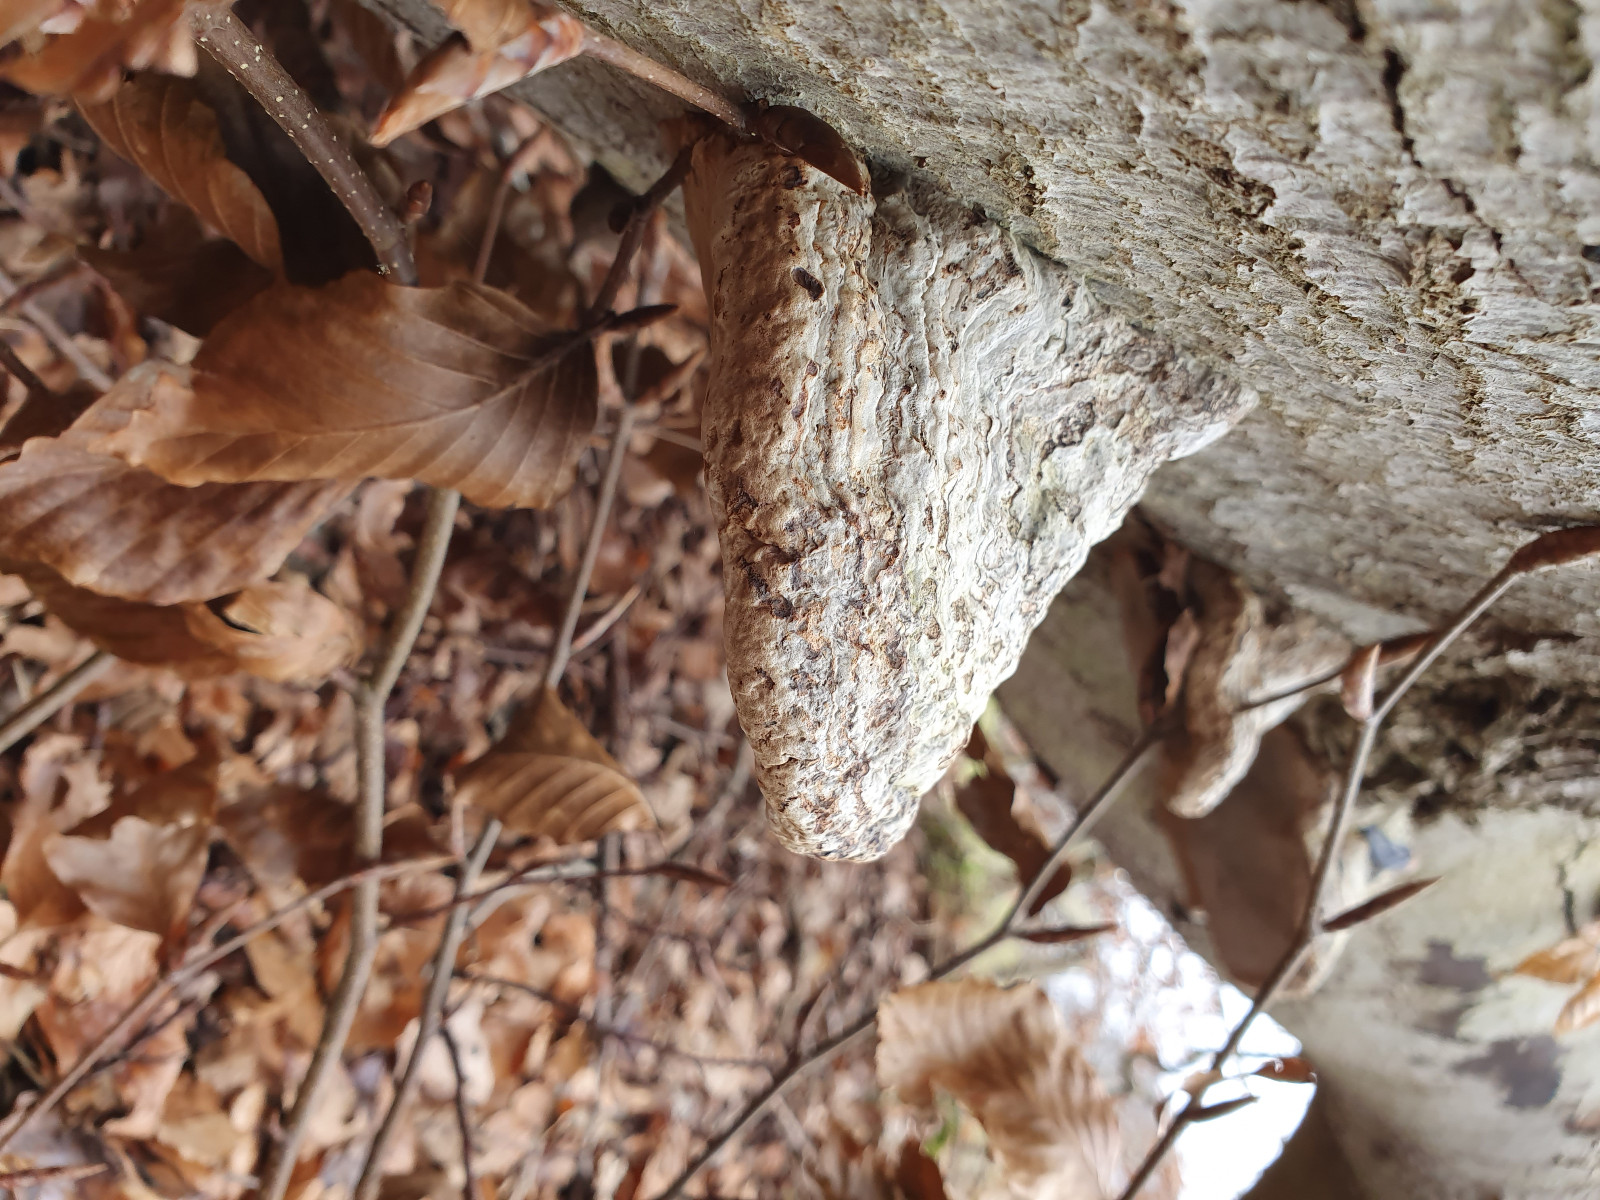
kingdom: Fungi
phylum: Basidiomycota
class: Agaricomycetes
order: Polyporales
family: Polyporaceae
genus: Fomes
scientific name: Fomes fomentarius
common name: tøndersvamp
